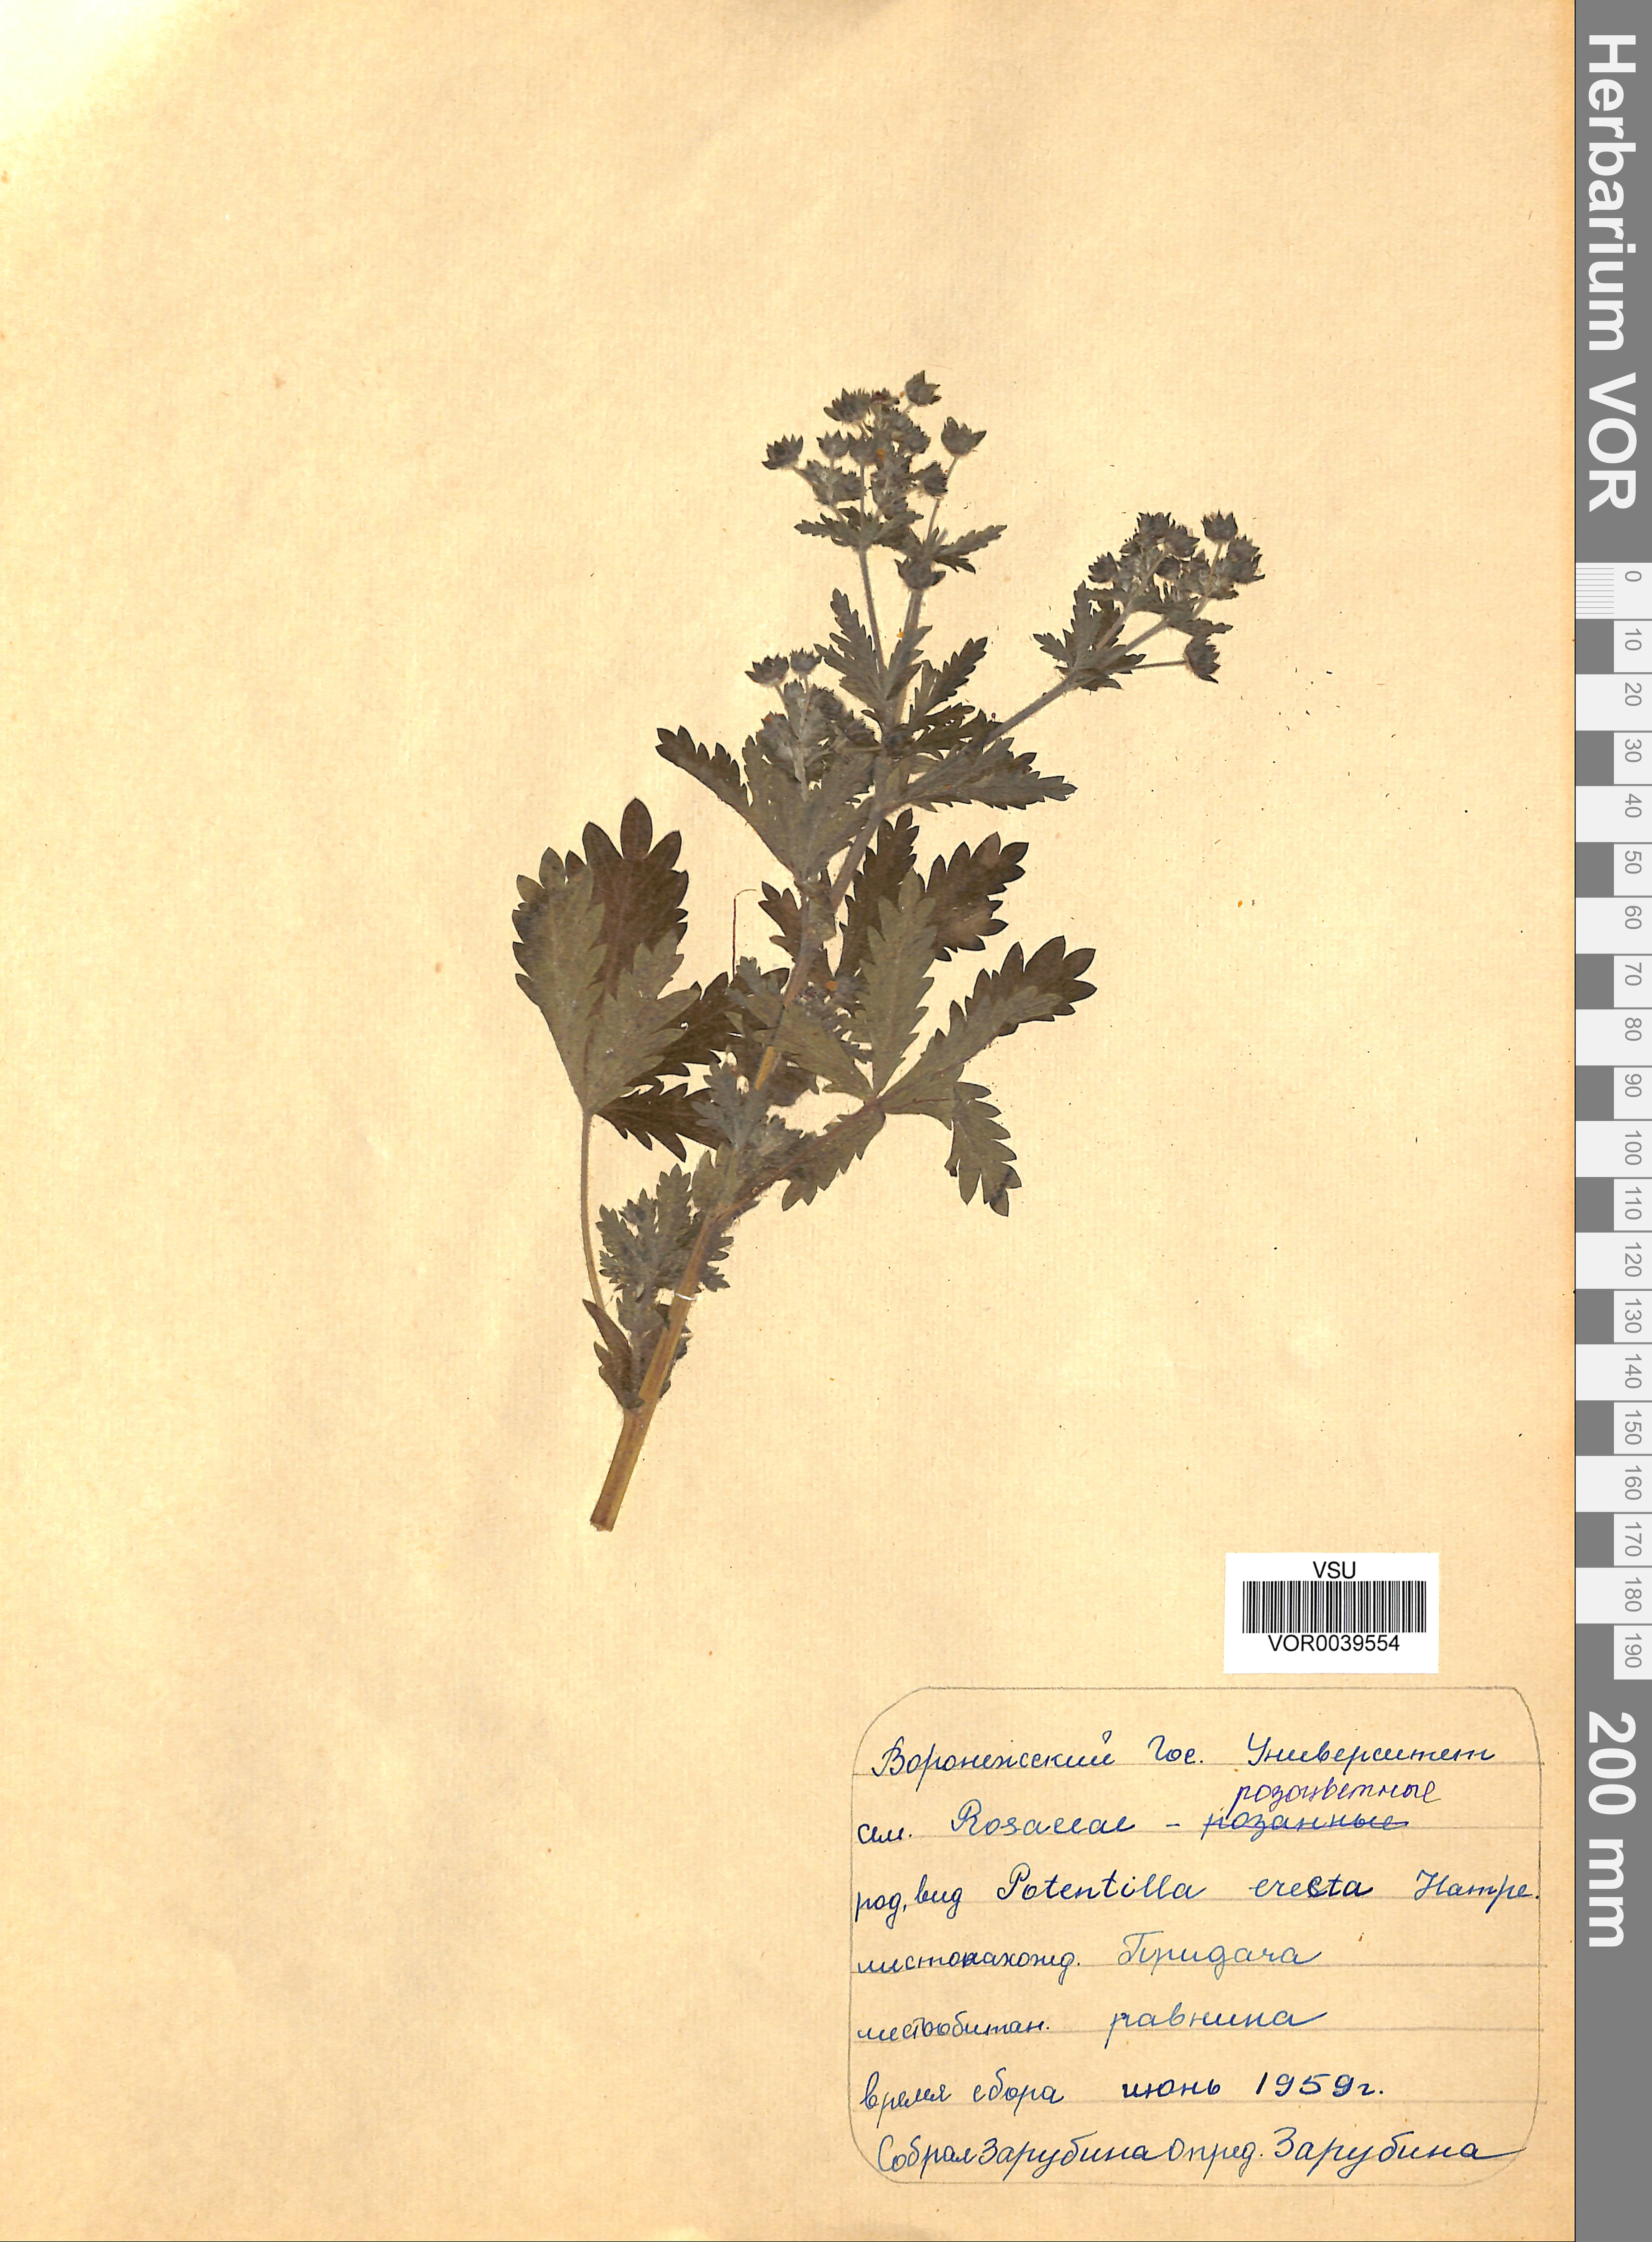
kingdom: Plantae
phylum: Tracheophyta
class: Magnoliopsida
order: Rosales
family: Rosaceae
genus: Potentilla
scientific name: Potentilla erecta
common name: Tormentil
